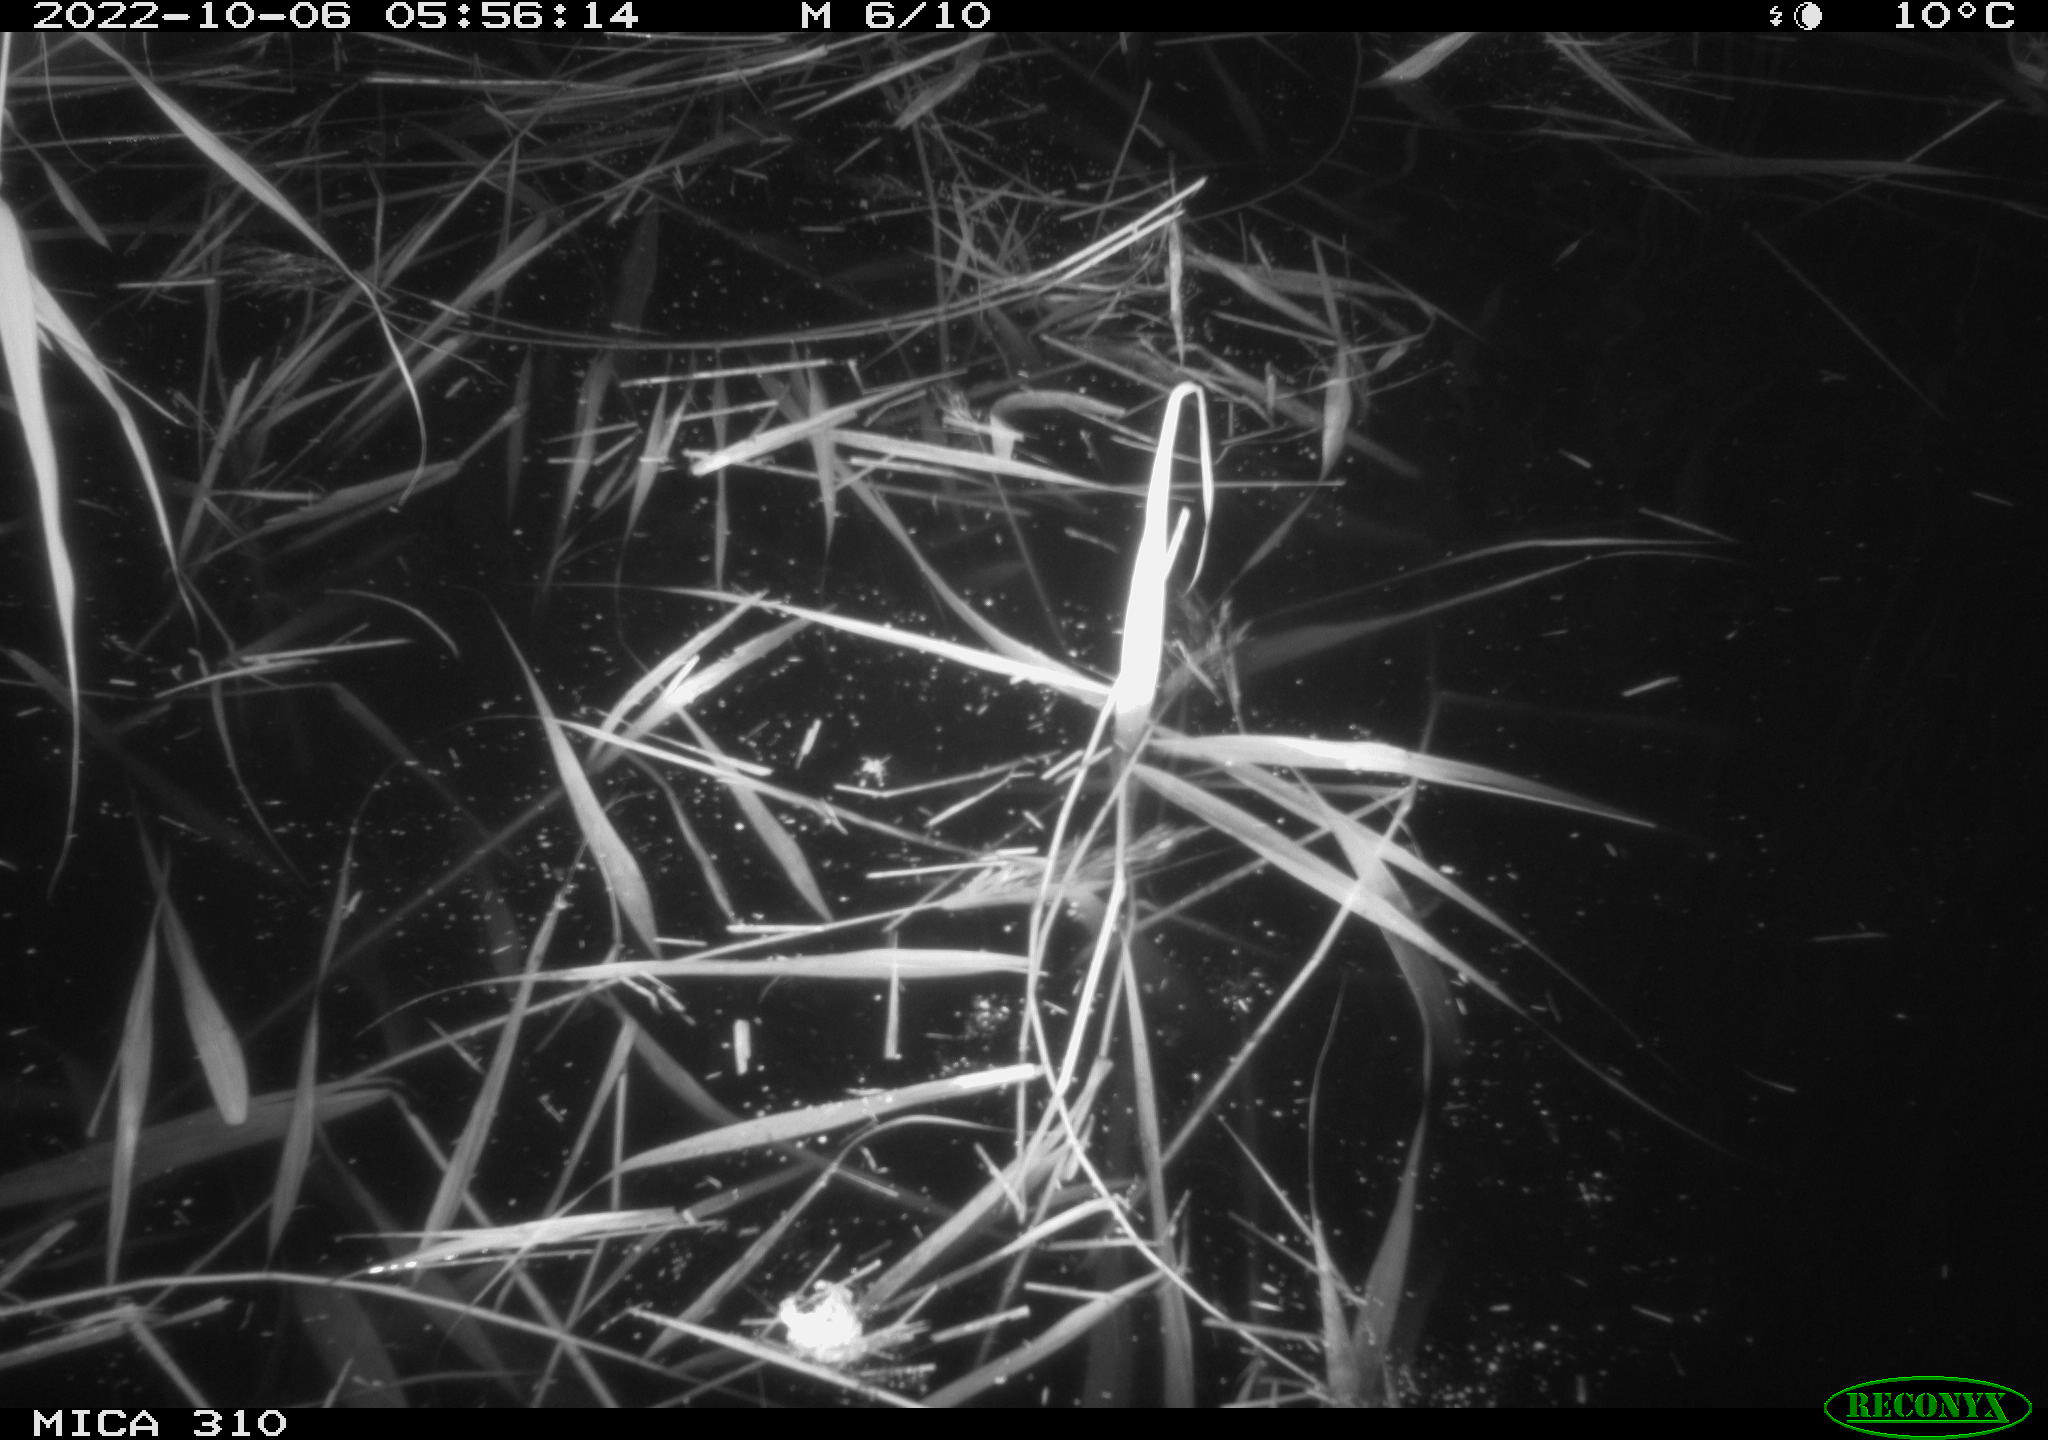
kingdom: Animalia
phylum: Chordata
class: Mammalia
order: Rodentia
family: Muridae
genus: Rattus
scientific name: Rattus norvegicus
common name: Brown rat
